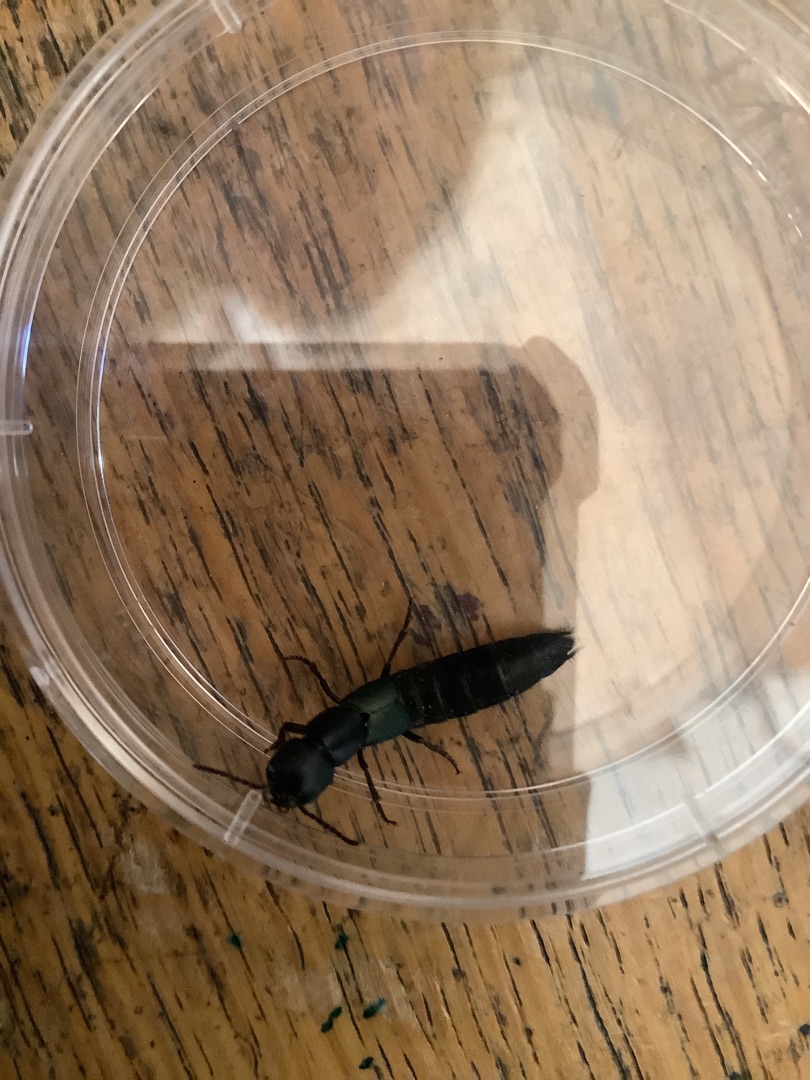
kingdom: Animalia
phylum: Arthropoda
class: Insecta
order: Coleoptera
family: Staphylinidae
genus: Ocypus
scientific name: Ocypus ophthalmicus
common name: Blå kæmperovbille
